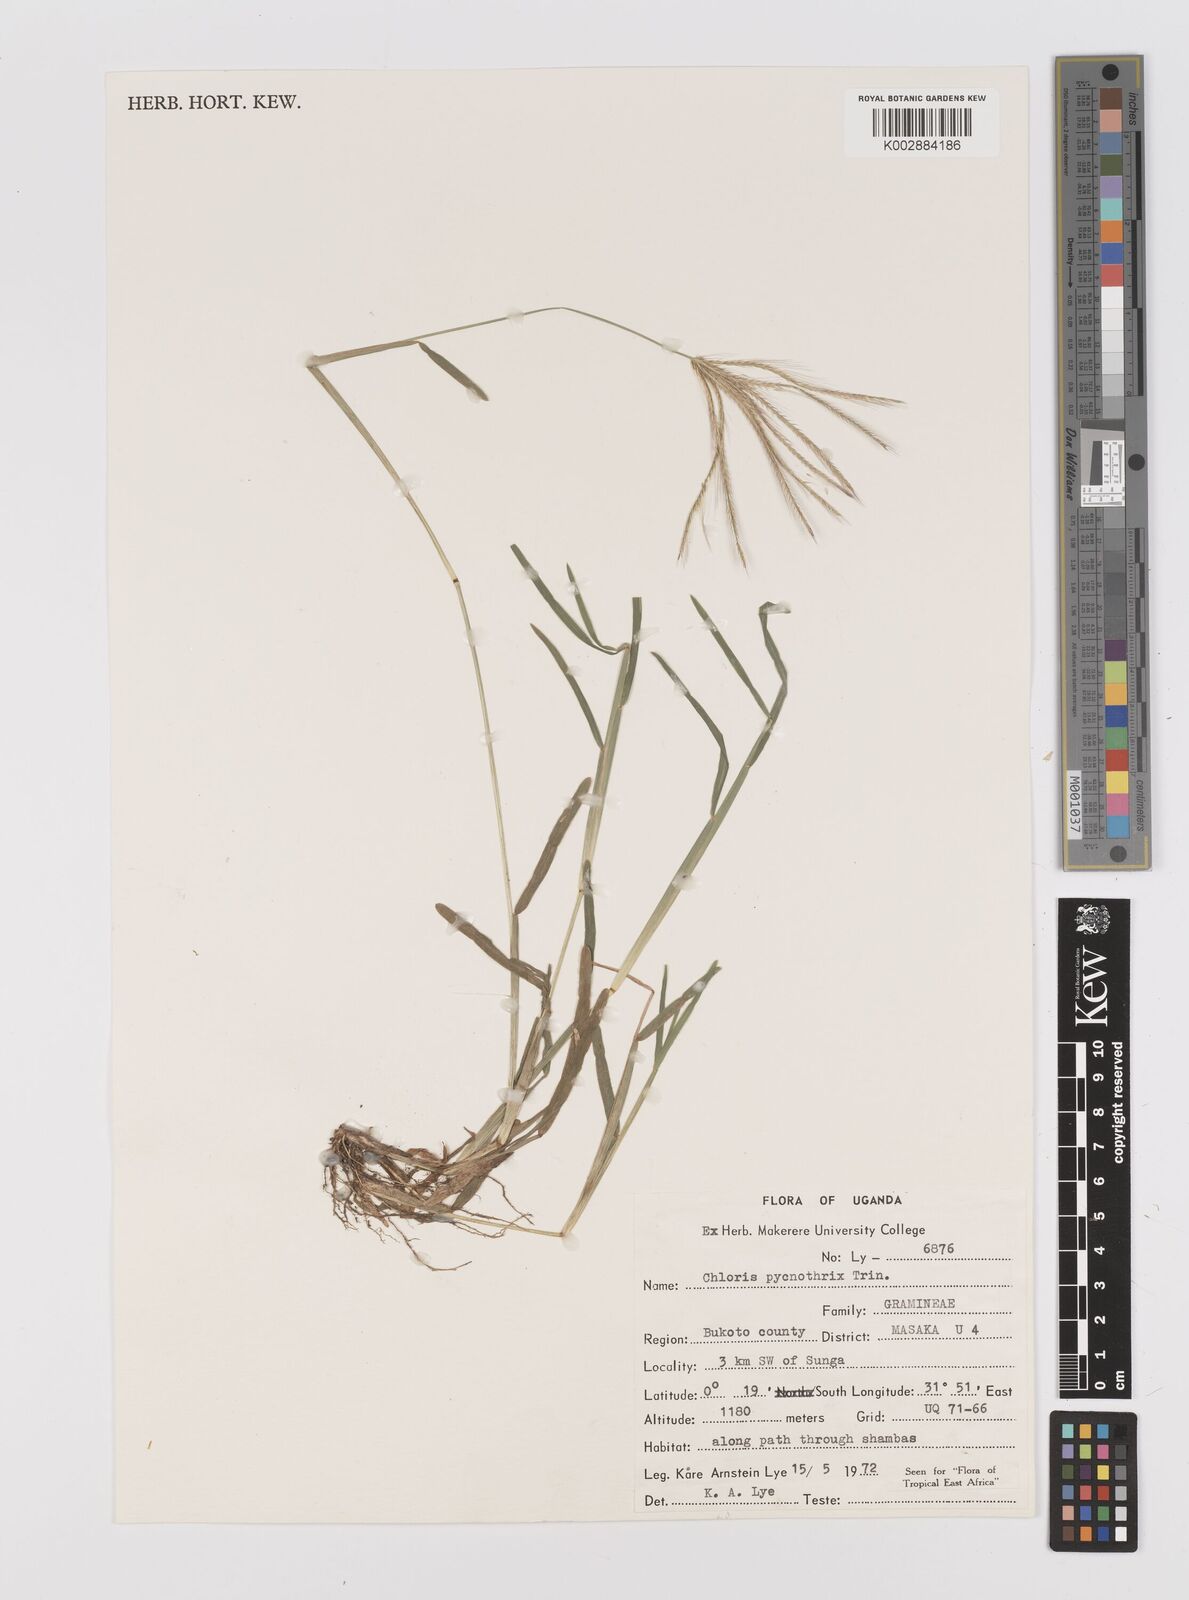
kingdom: Plantae
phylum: Tracheophyta
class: Liliopsida
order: Poales
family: Poaceae
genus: Chloris
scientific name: Chloris pycnothrix
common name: Spiderweb chloris
